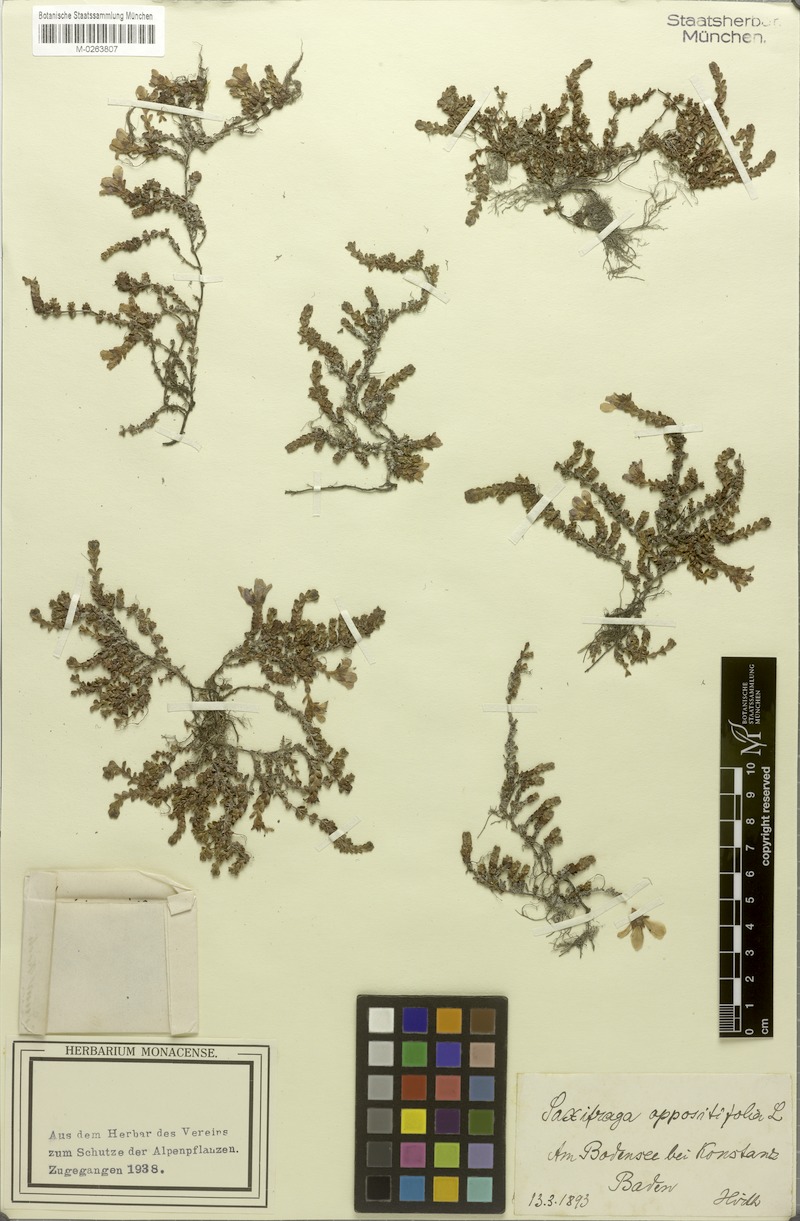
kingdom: Plantae
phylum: Tracheophyta
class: Magnoliopsida
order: Saxifragales
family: Saxifragaceae
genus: Saxifraga
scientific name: Saxifraga oppositifolia
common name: Purple saxifrage
